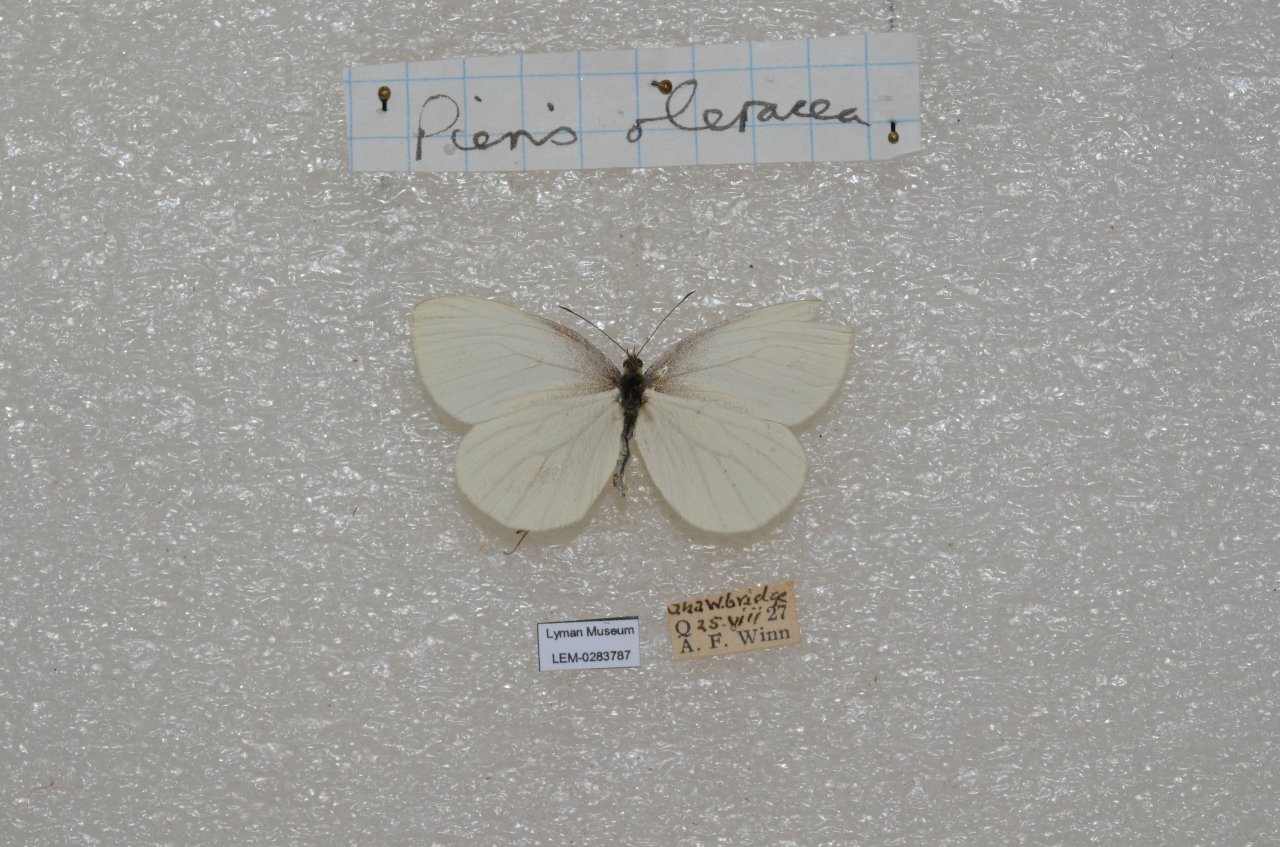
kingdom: Animalia
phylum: Arthropoda
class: Insecta
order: Lepidoptera
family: Pieridae
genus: Pieris
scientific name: Pieris oleracea
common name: Mustard White
